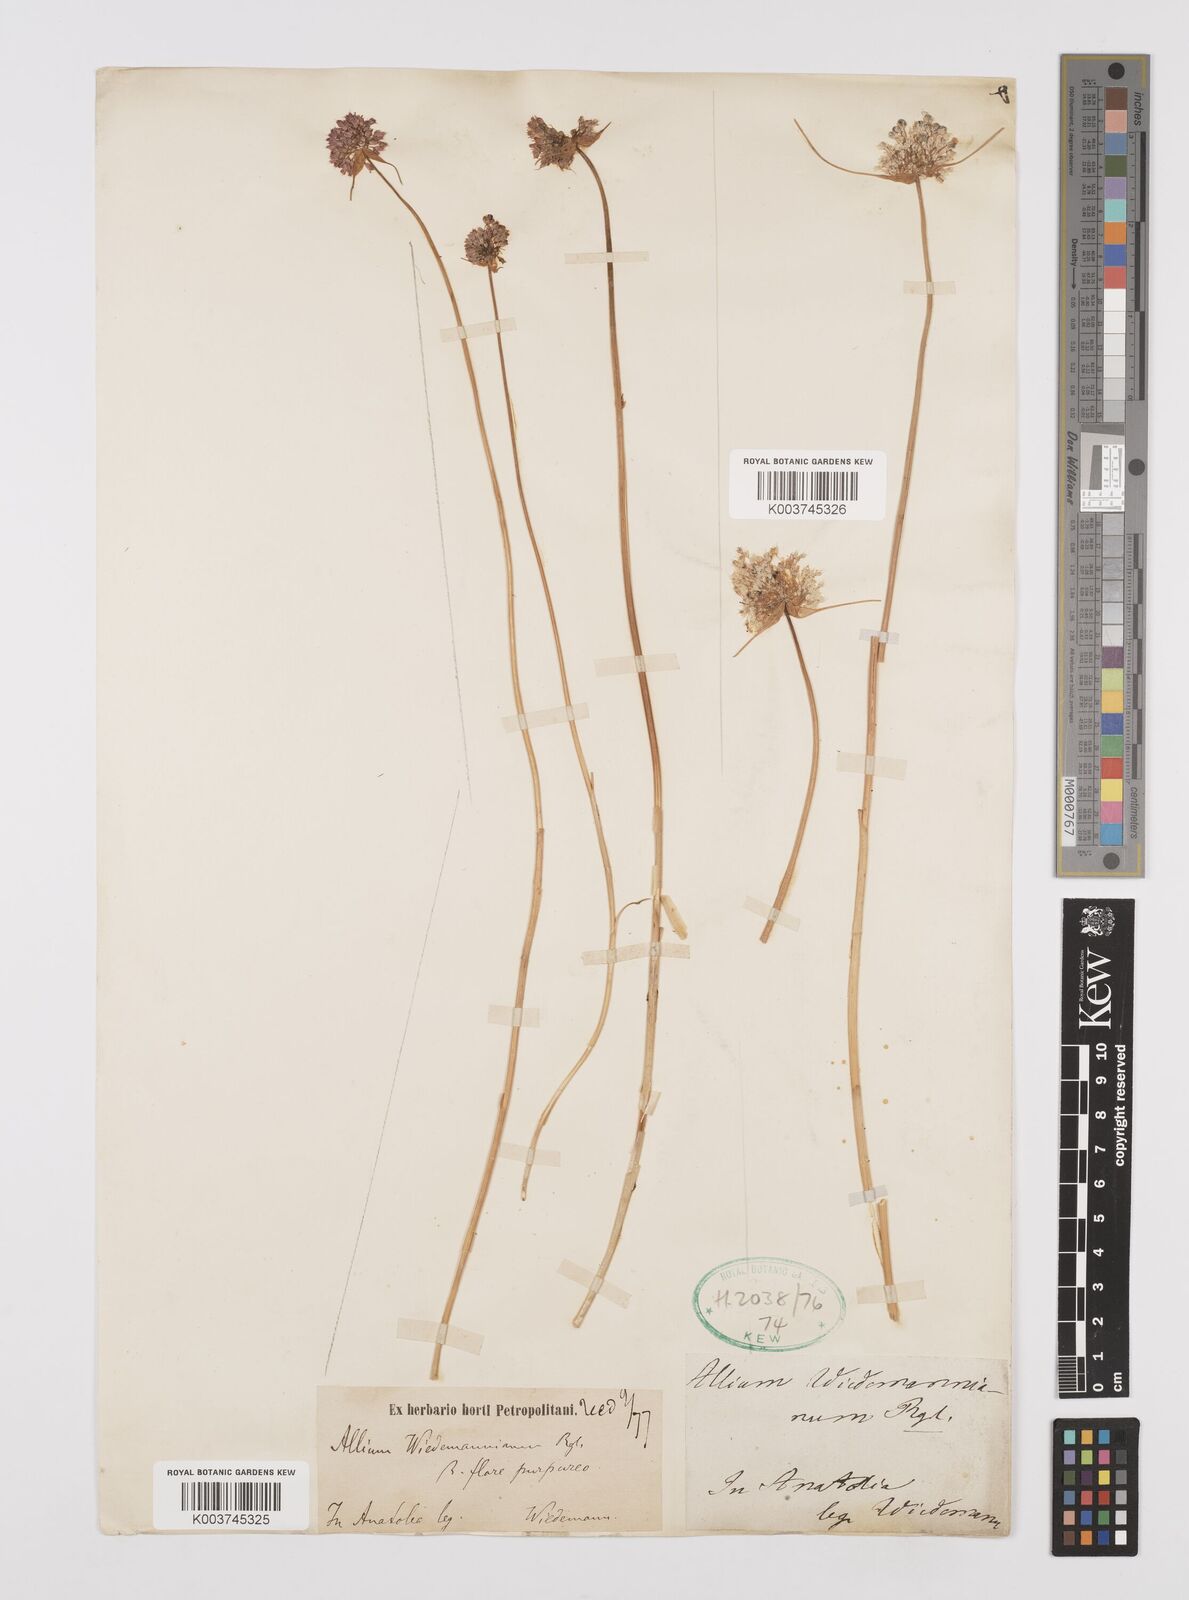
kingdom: Plantae
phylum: Tracheophyta
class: Liliopsida
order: Asparagales
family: Amaryllidaceae
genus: Allium
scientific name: Allium wiedemannianum
